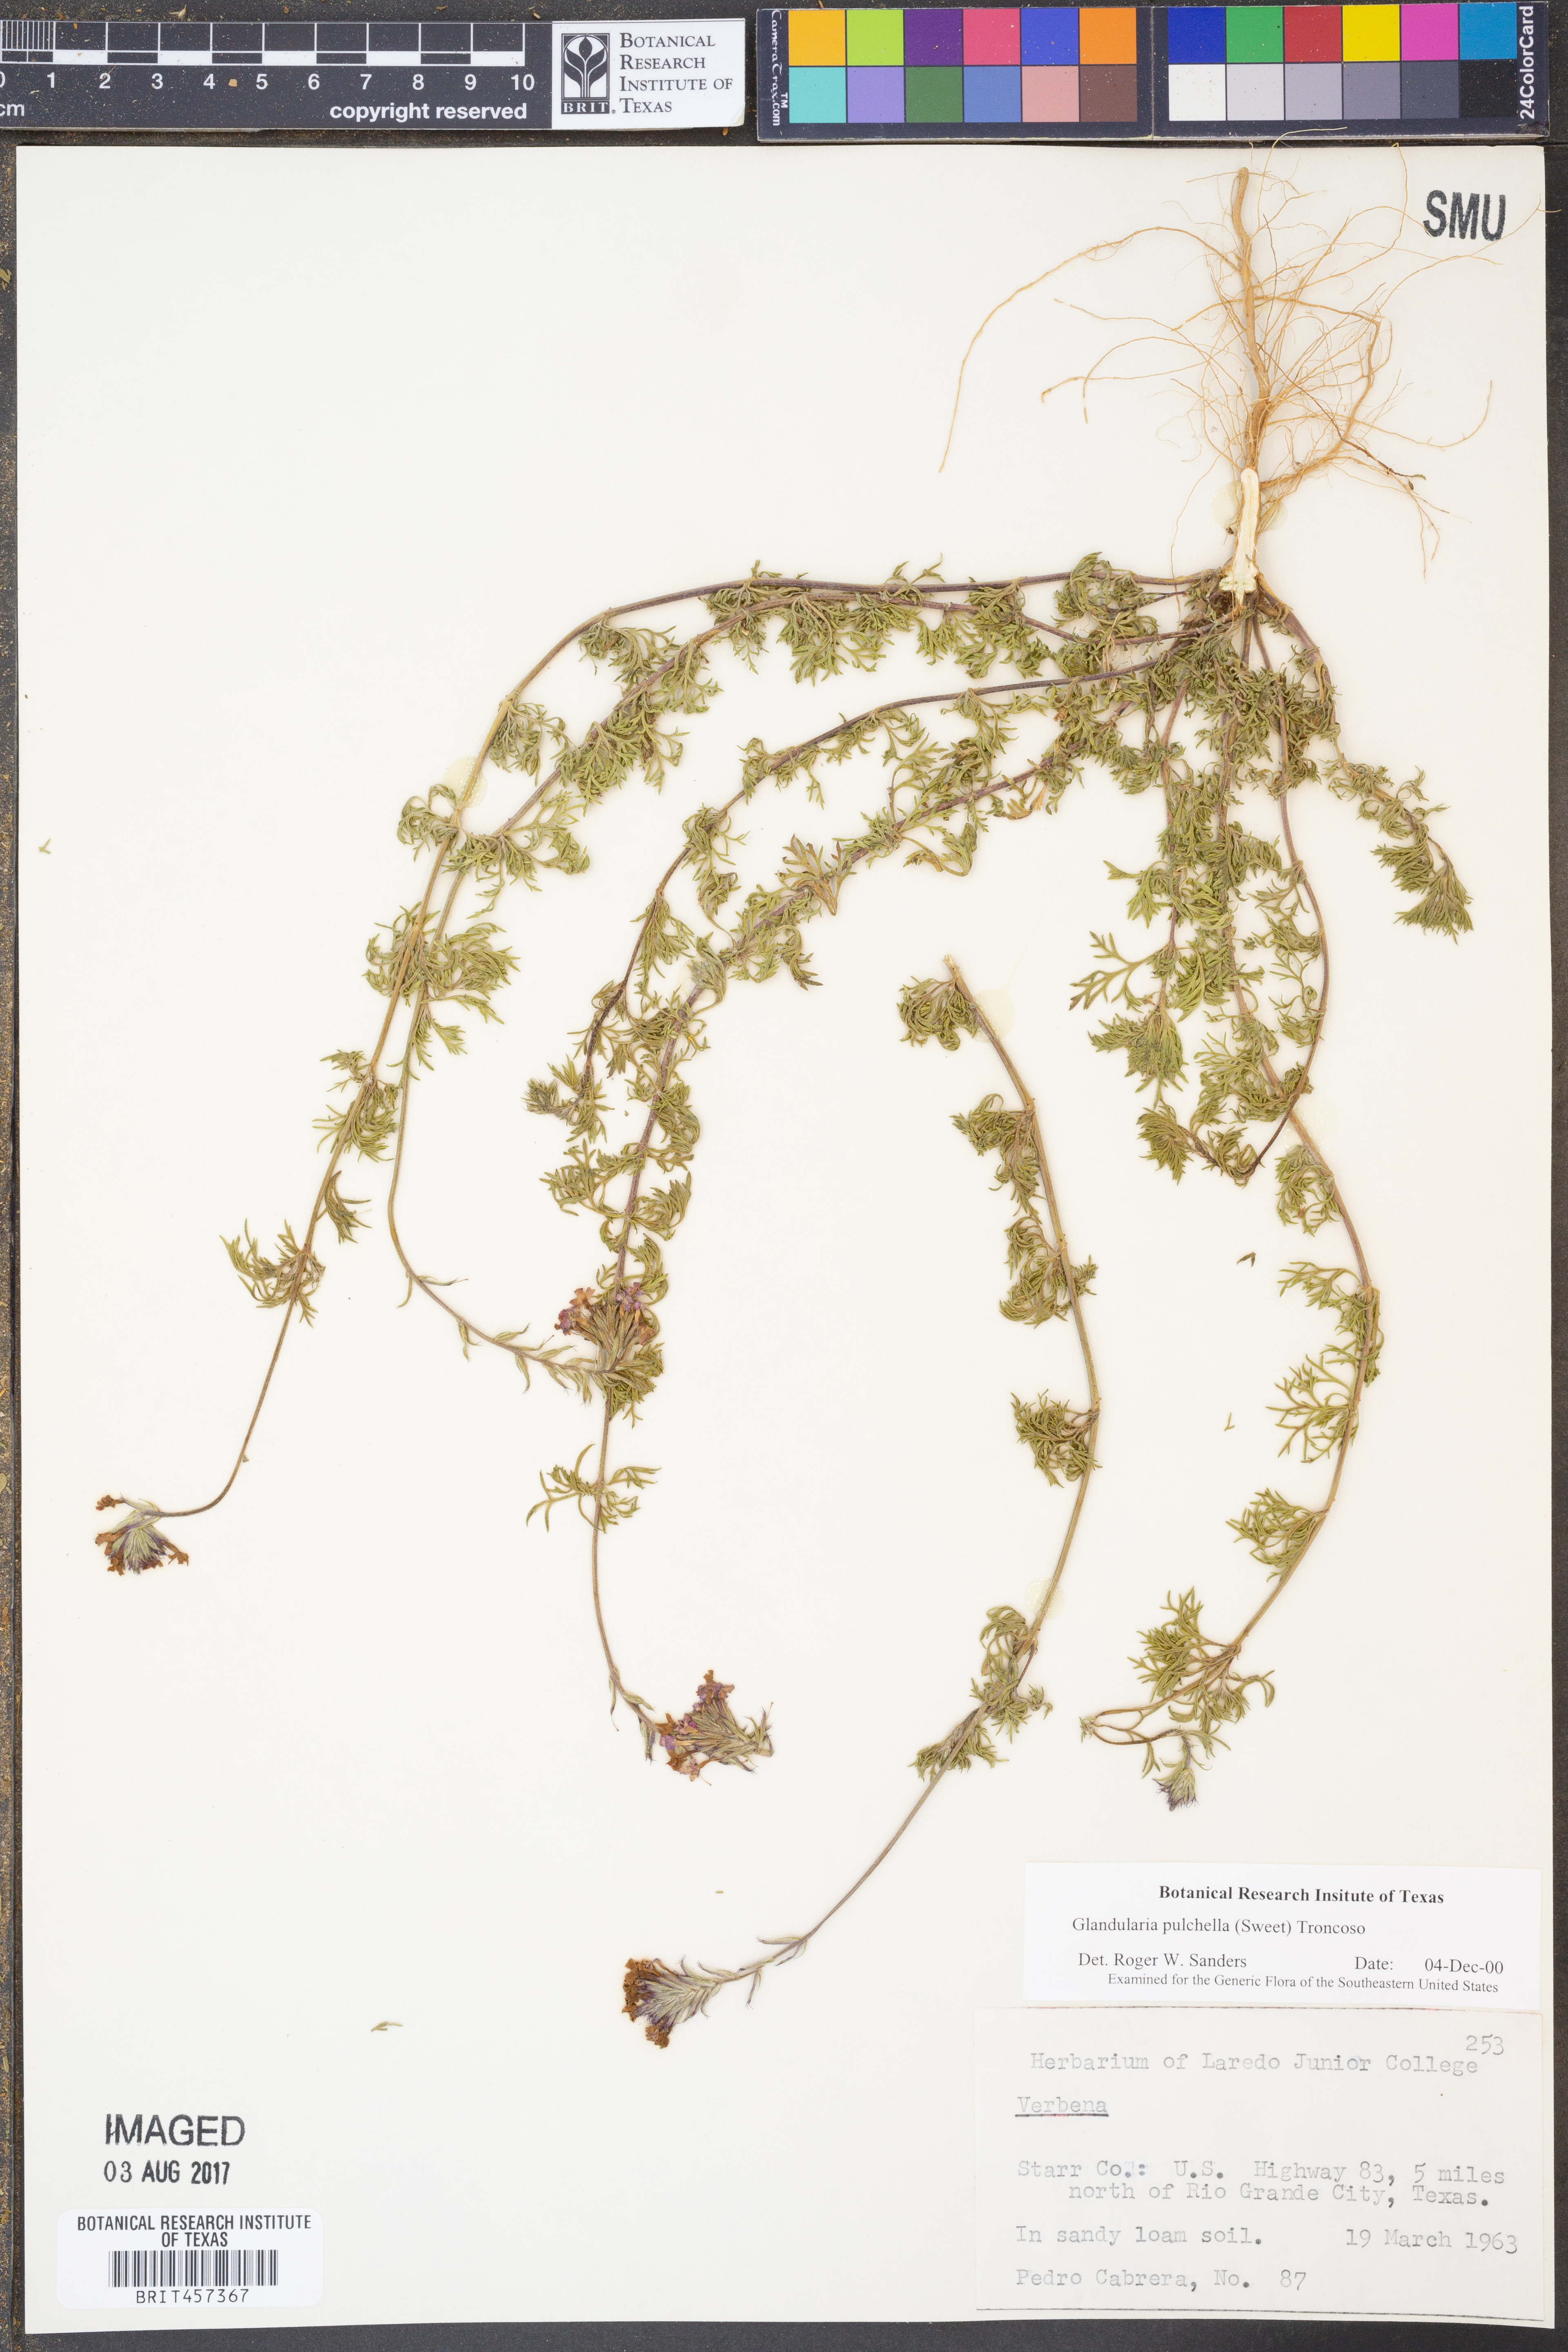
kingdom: Plantae
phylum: Tracheophyta
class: Magnoliopsida
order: Lamiales
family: Verbenaceae
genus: Verbena
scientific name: Verbena tenera
